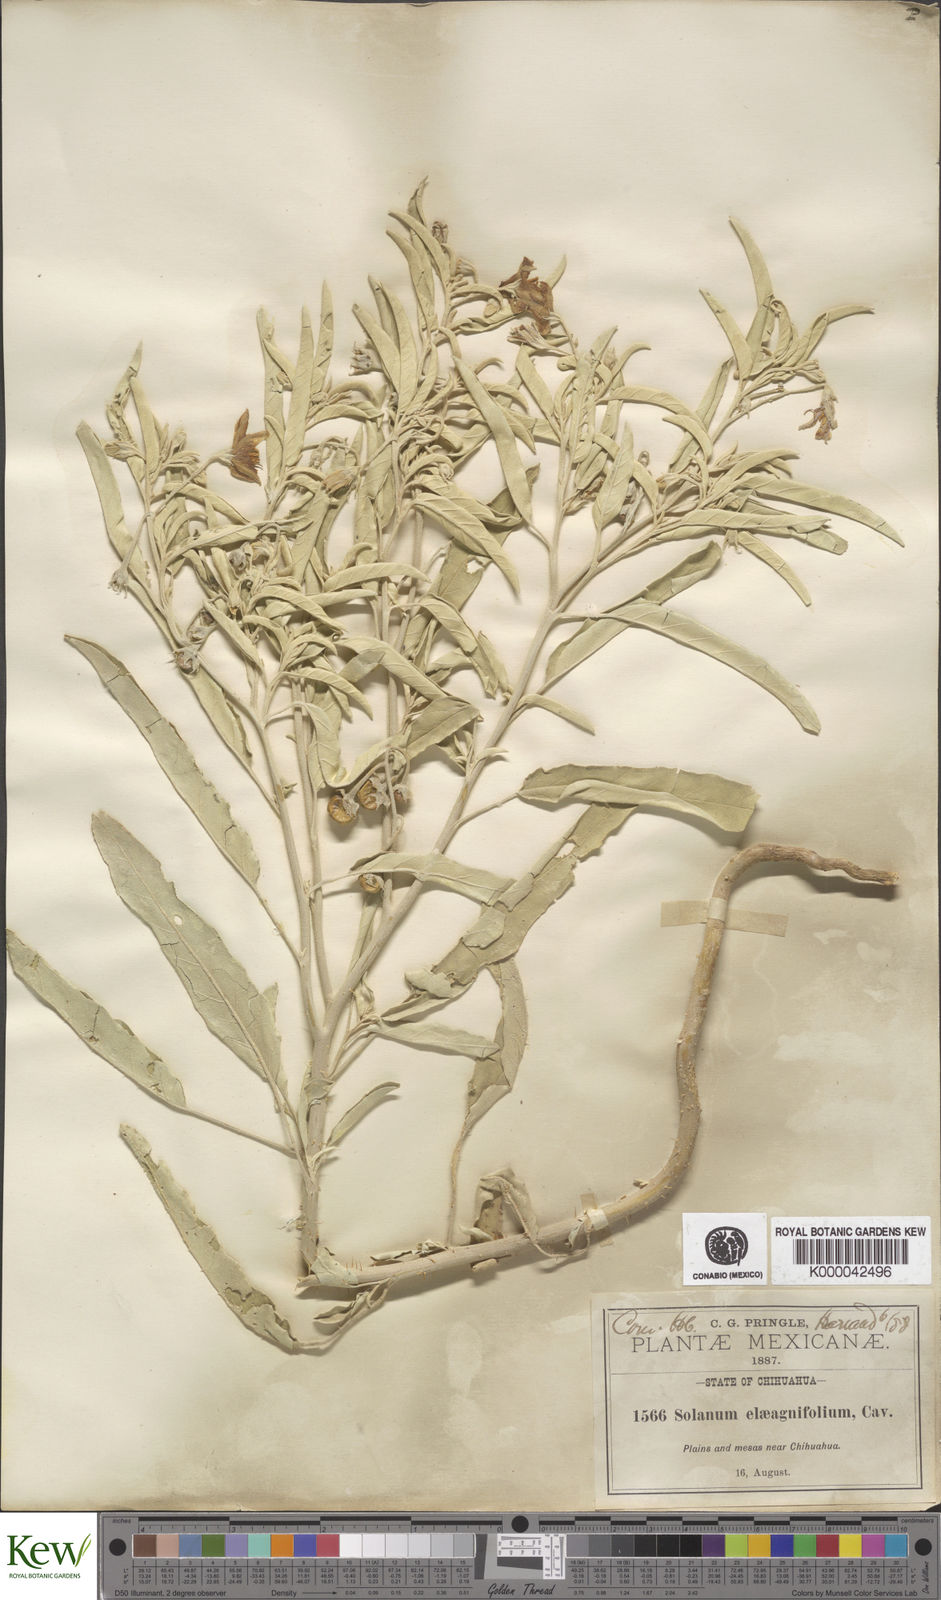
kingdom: Plantae
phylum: Tracheophyta
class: Magnoliopsida
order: Solanales
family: Solanaceae
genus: Solanum
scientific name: Solanum elaeagnifolium
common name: Silverleaf nightshade
